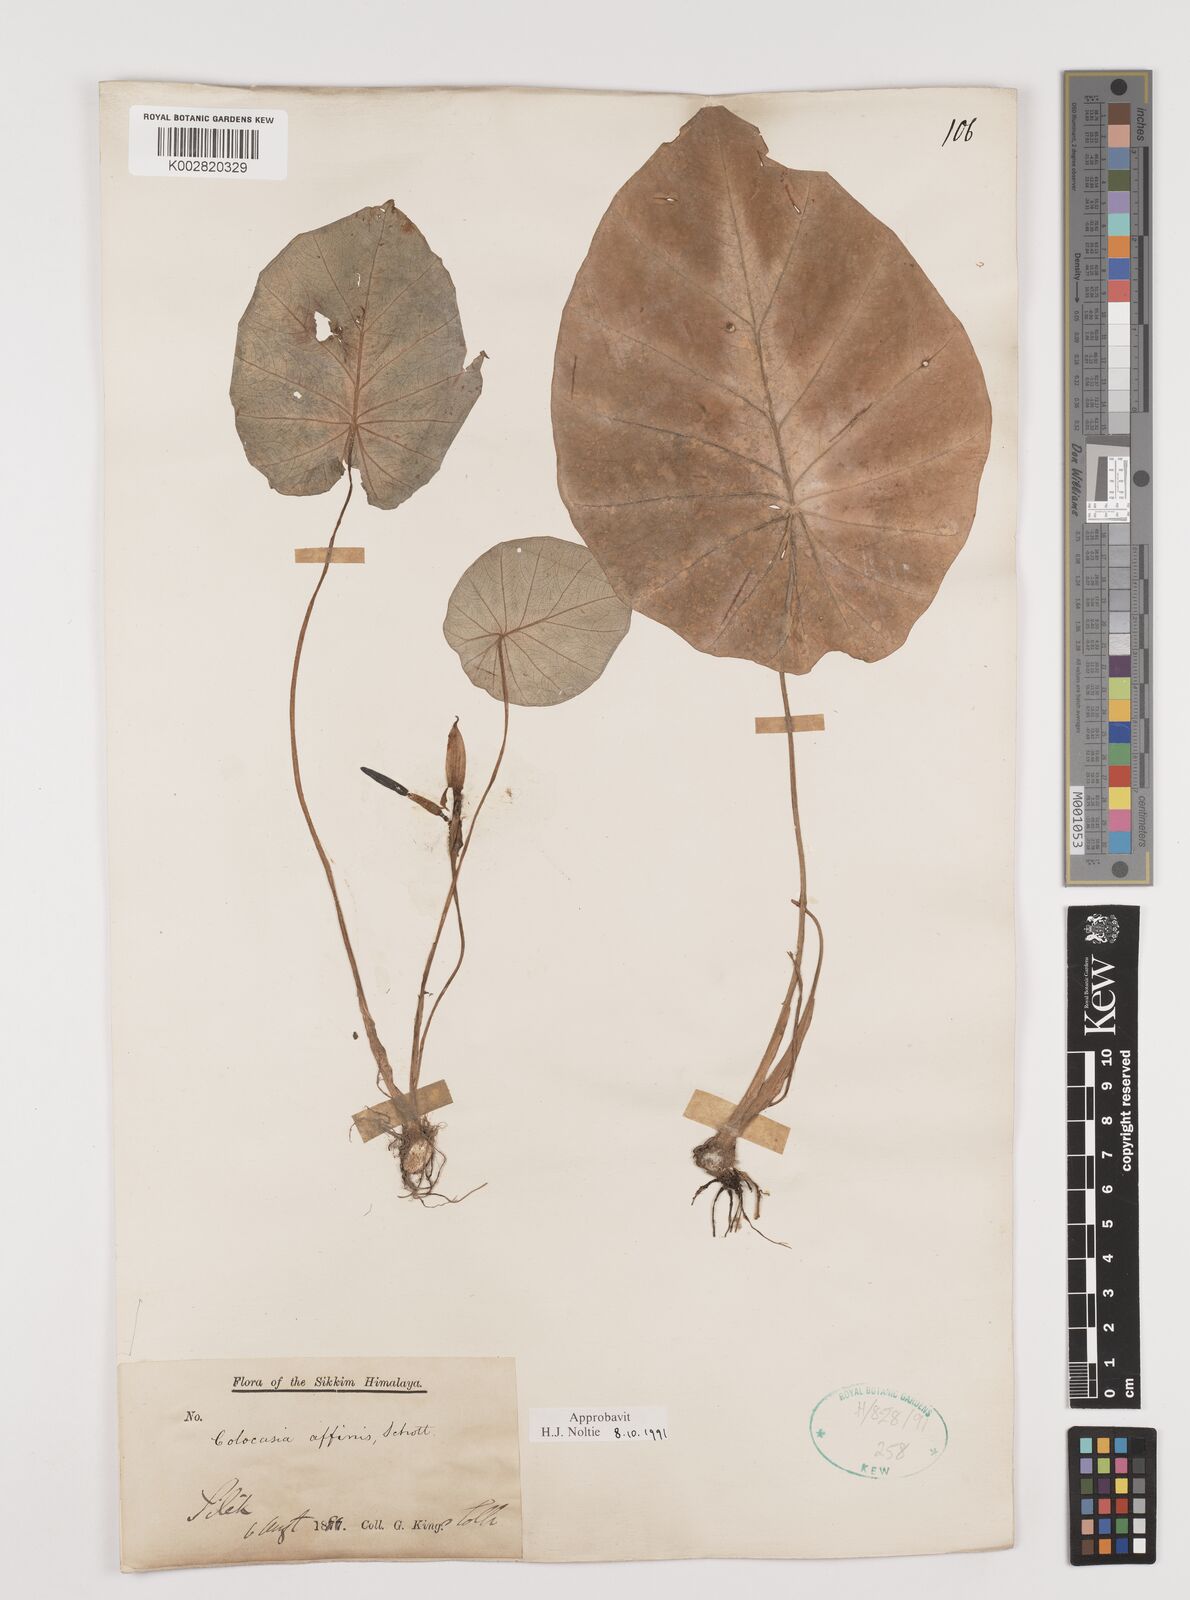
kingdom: Plantae
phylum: Tracheophyta
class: Liliopsida
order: Alismatales
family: Araceae
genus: Colocasia
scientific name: Colocasia affinis
